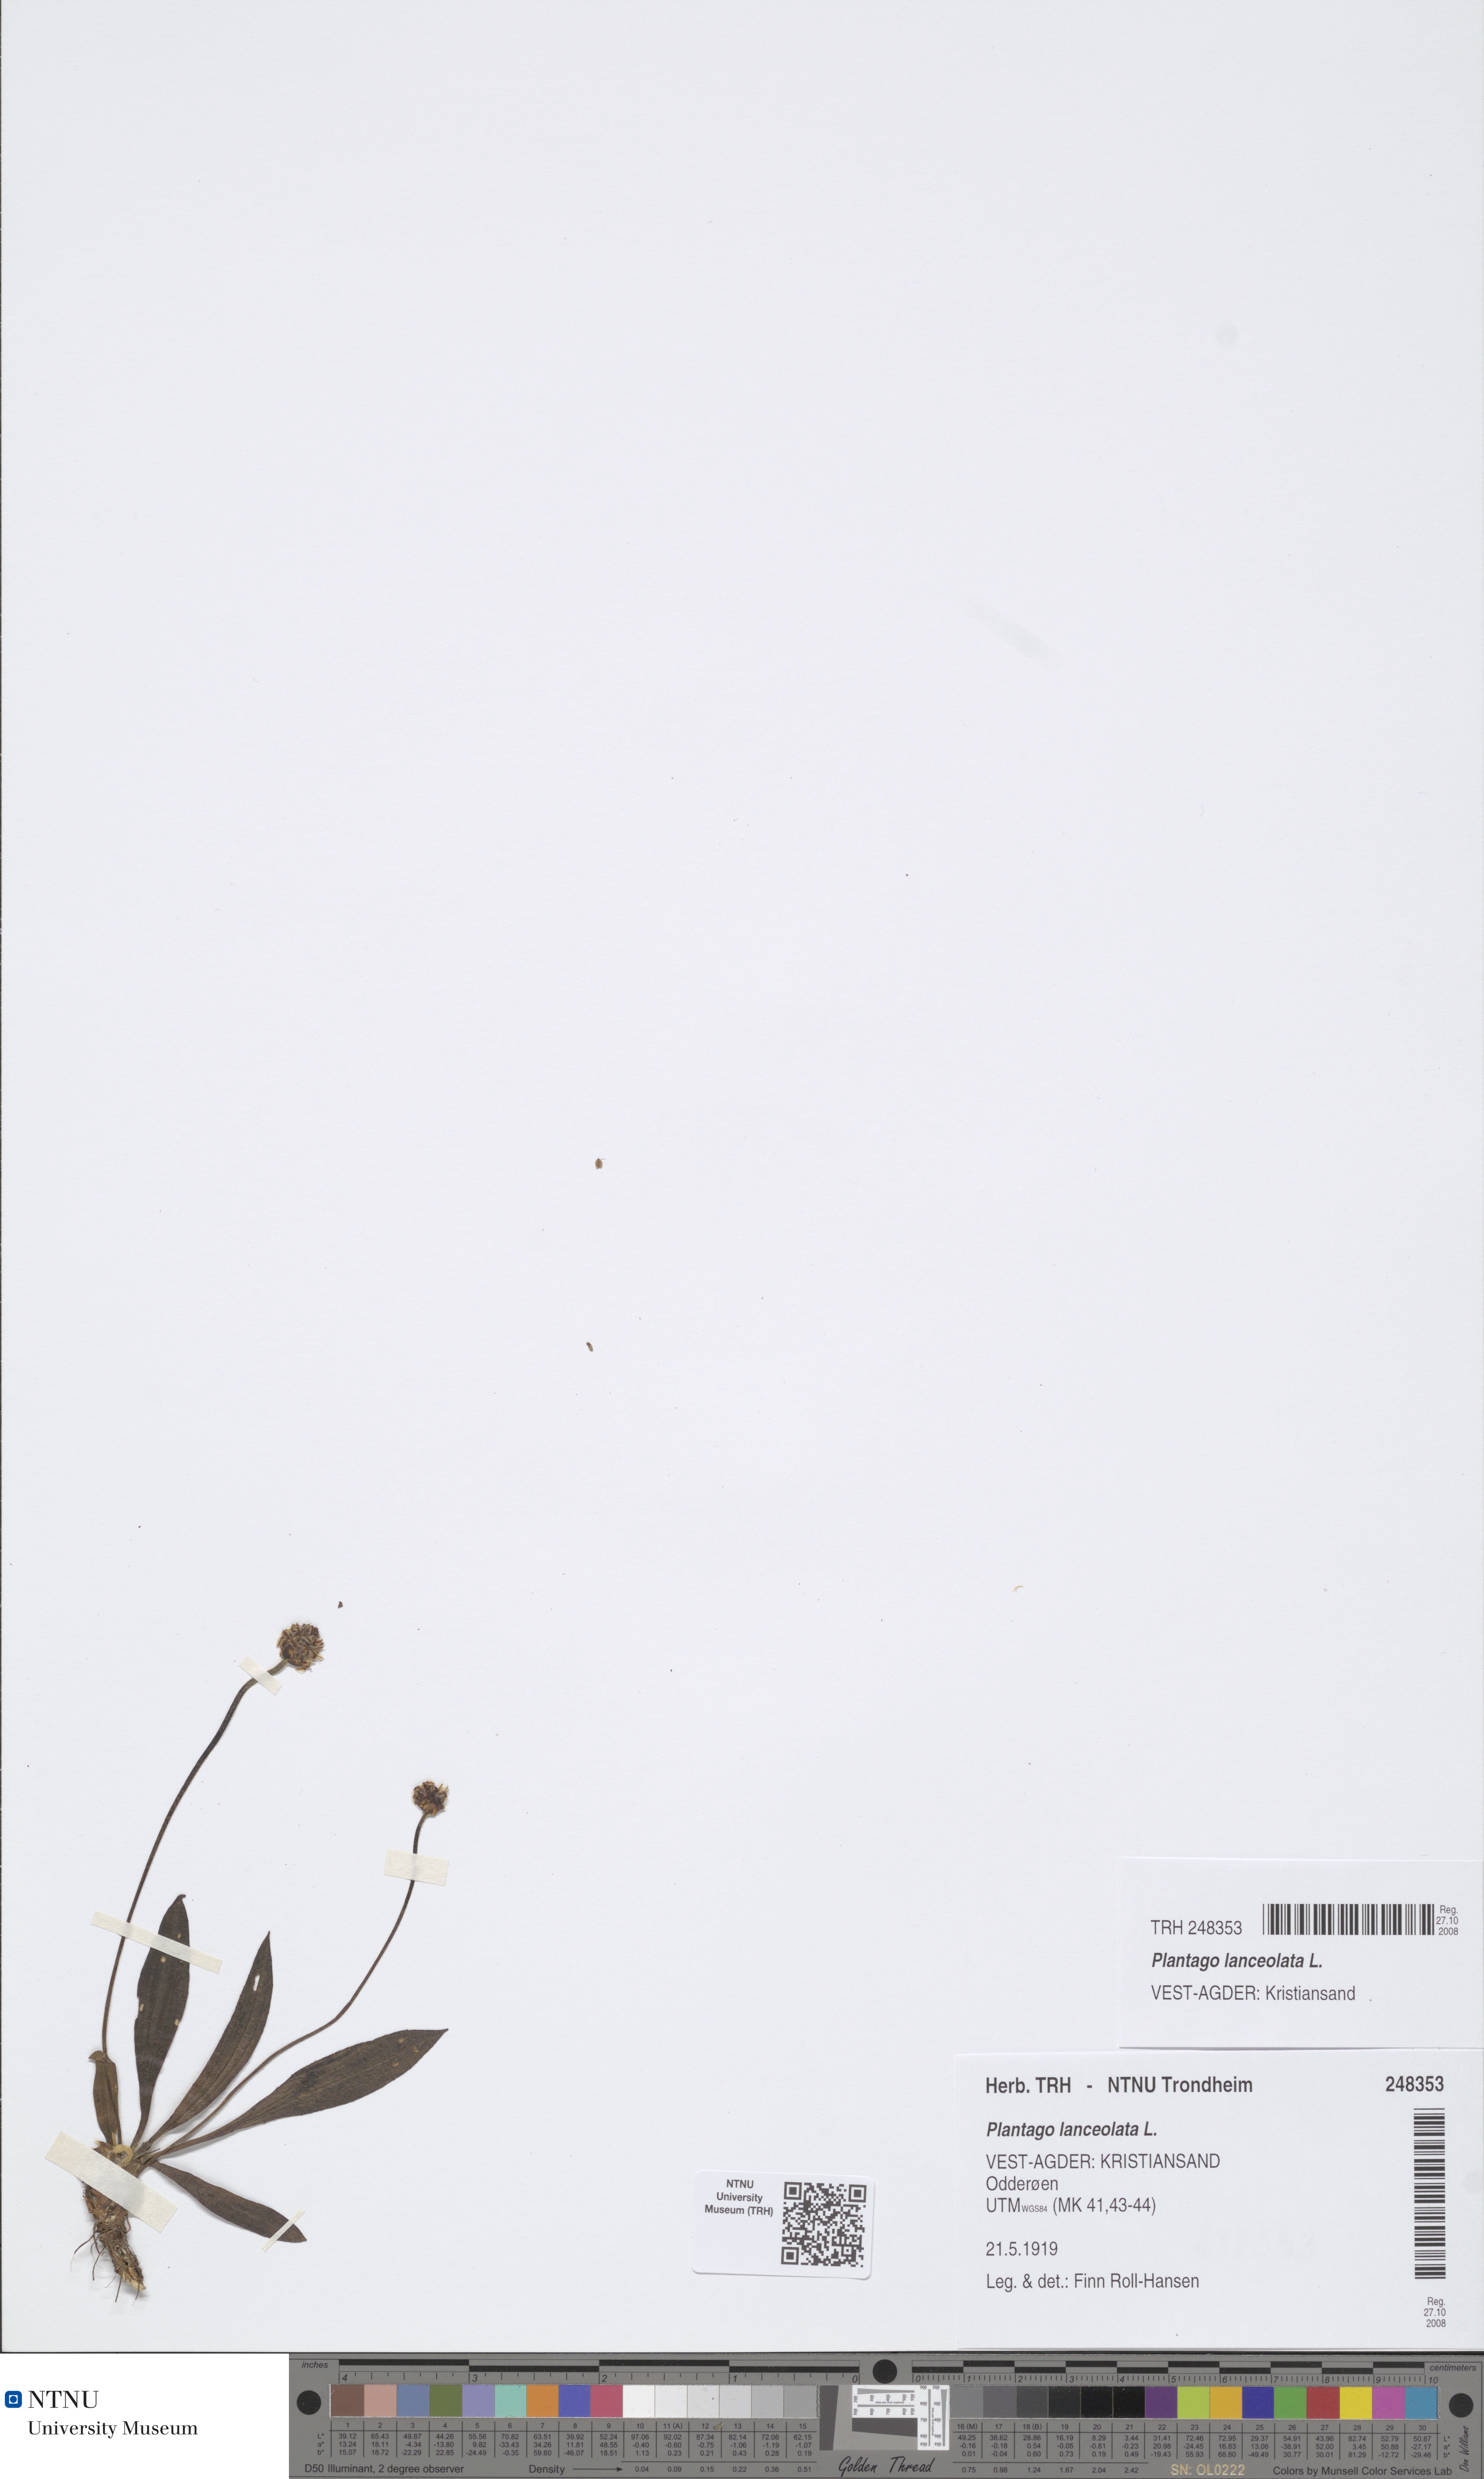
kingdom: Plantae
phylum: Tracheophyta
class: Magnoliopsida
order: Lamiales
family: Plantaginaceae
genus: Plantago
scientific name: Plantago lanceolata
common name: Ribwort plantain
